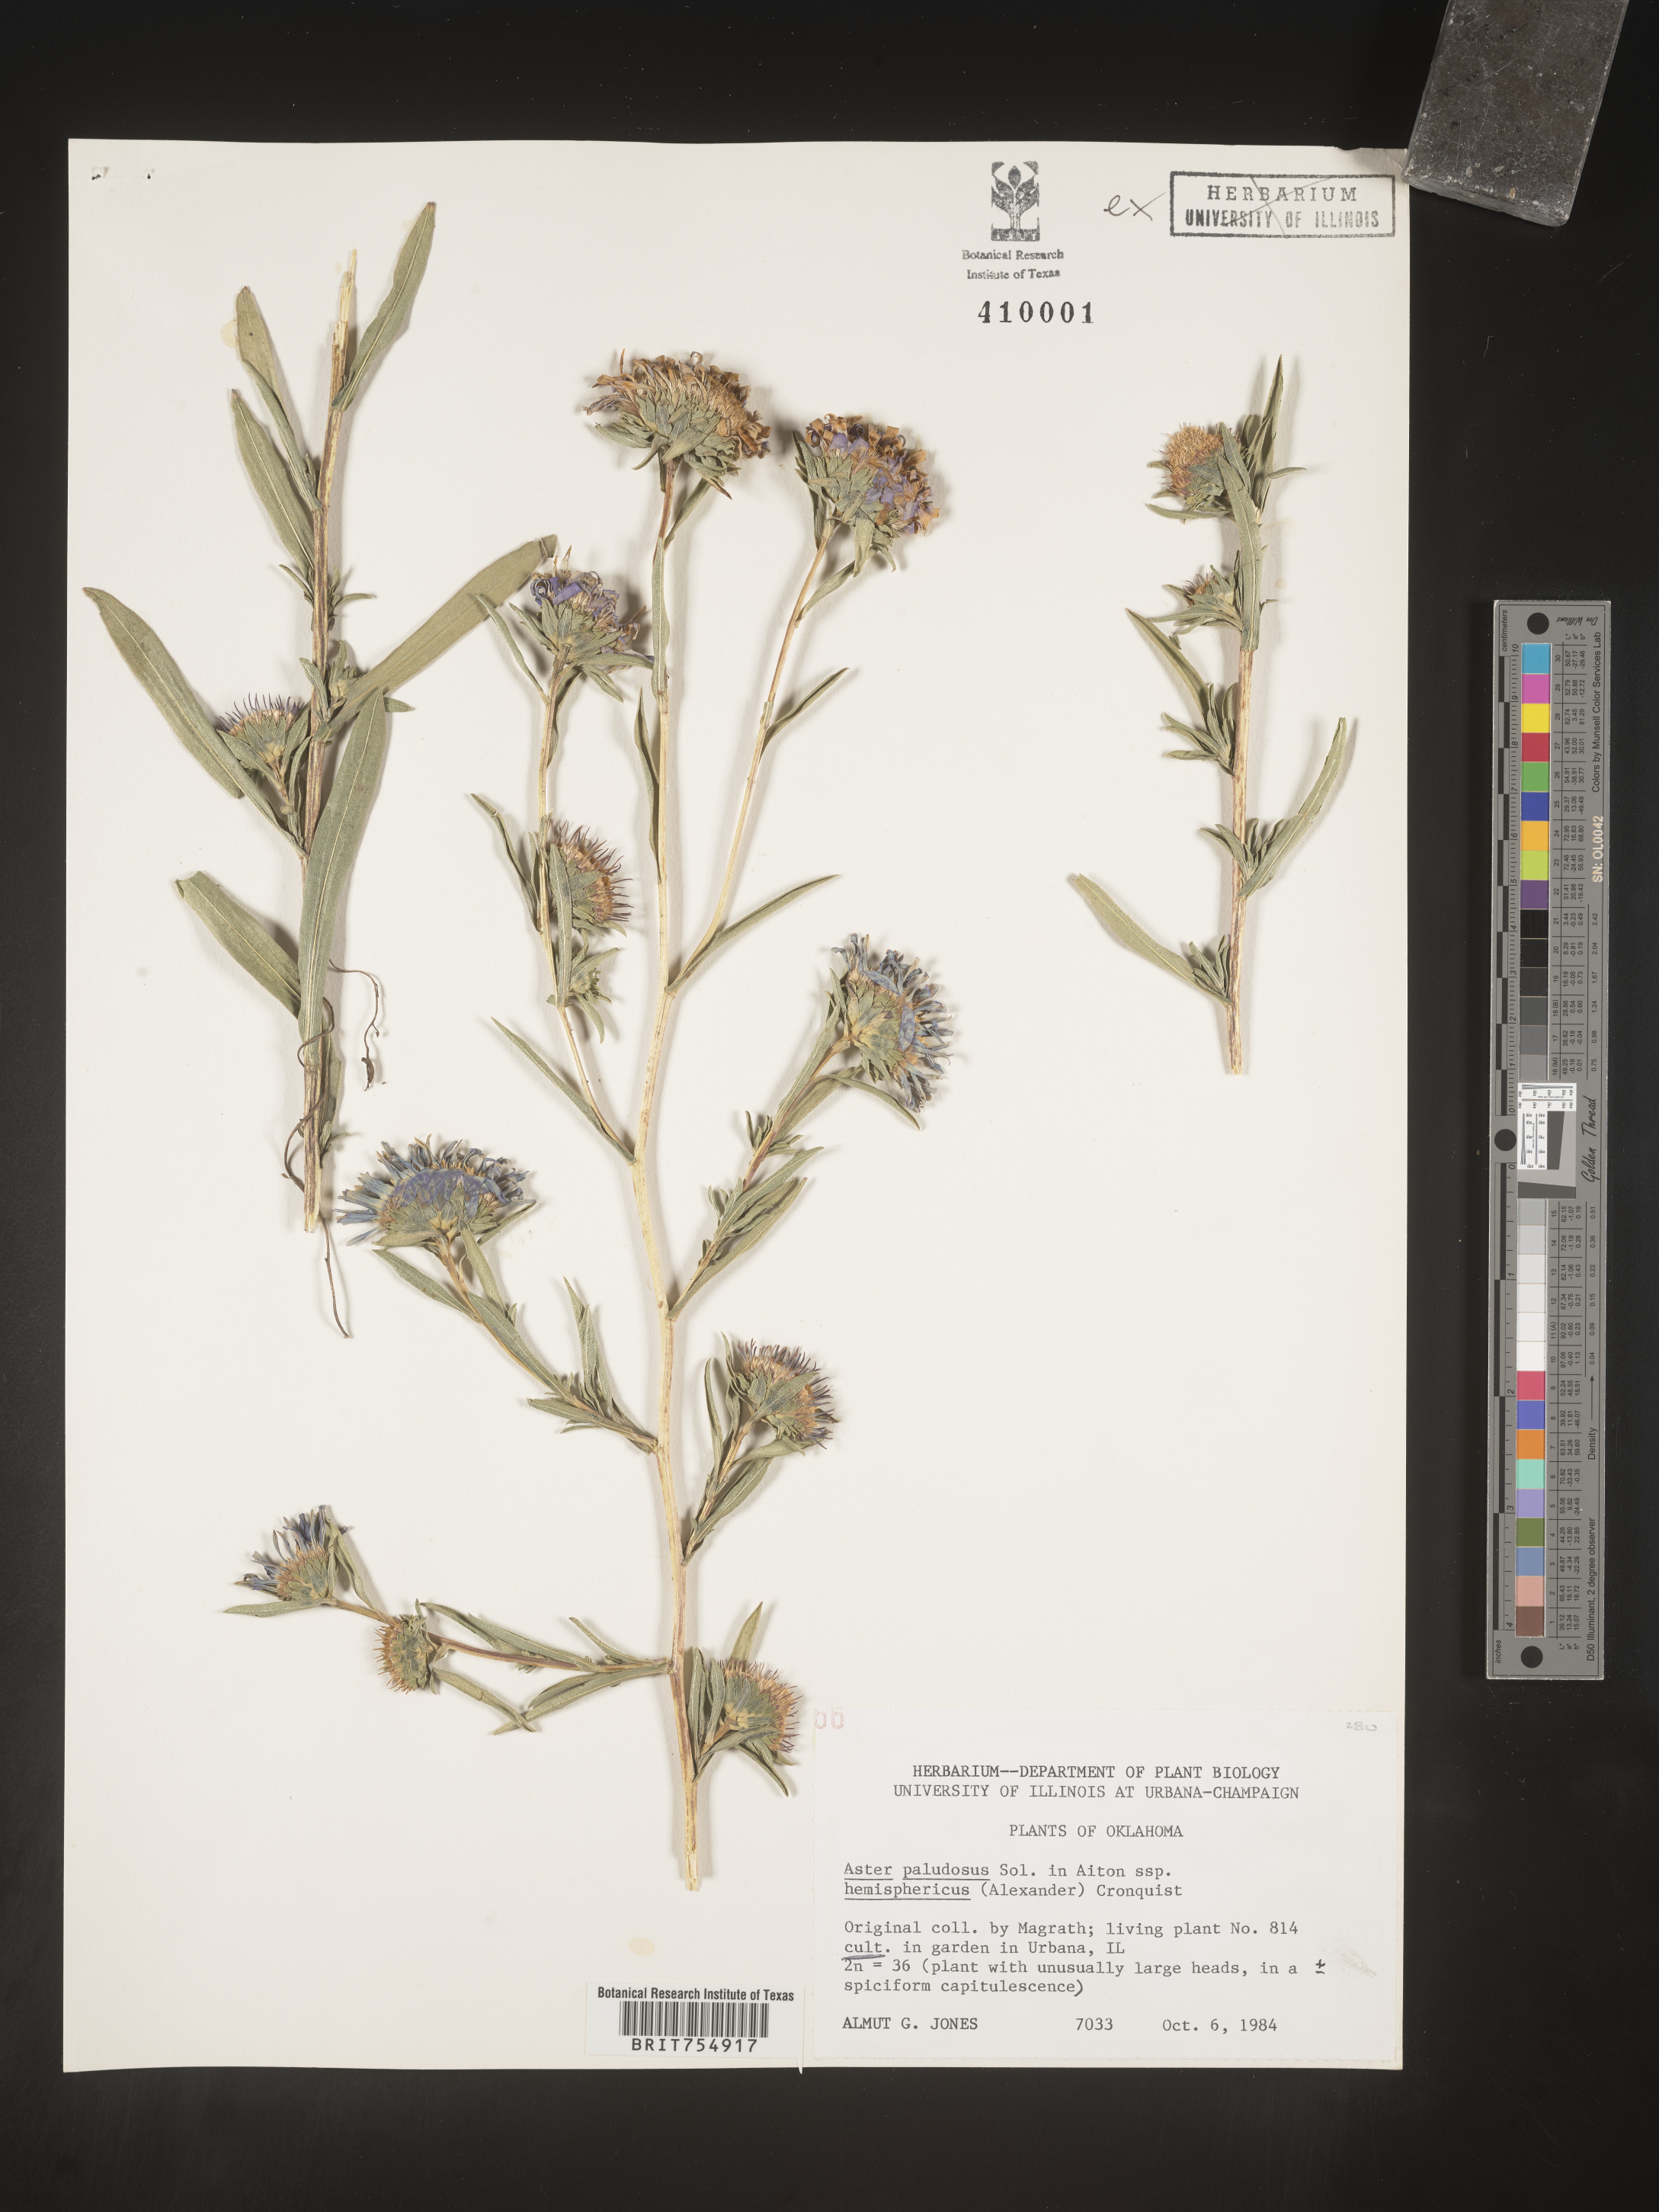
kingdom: Plantae
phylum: Tracheophyta
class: Magnoliopsida
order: Asterales
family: Asteraceae
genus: Symphyotrichum
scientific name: Symphyotrichum
